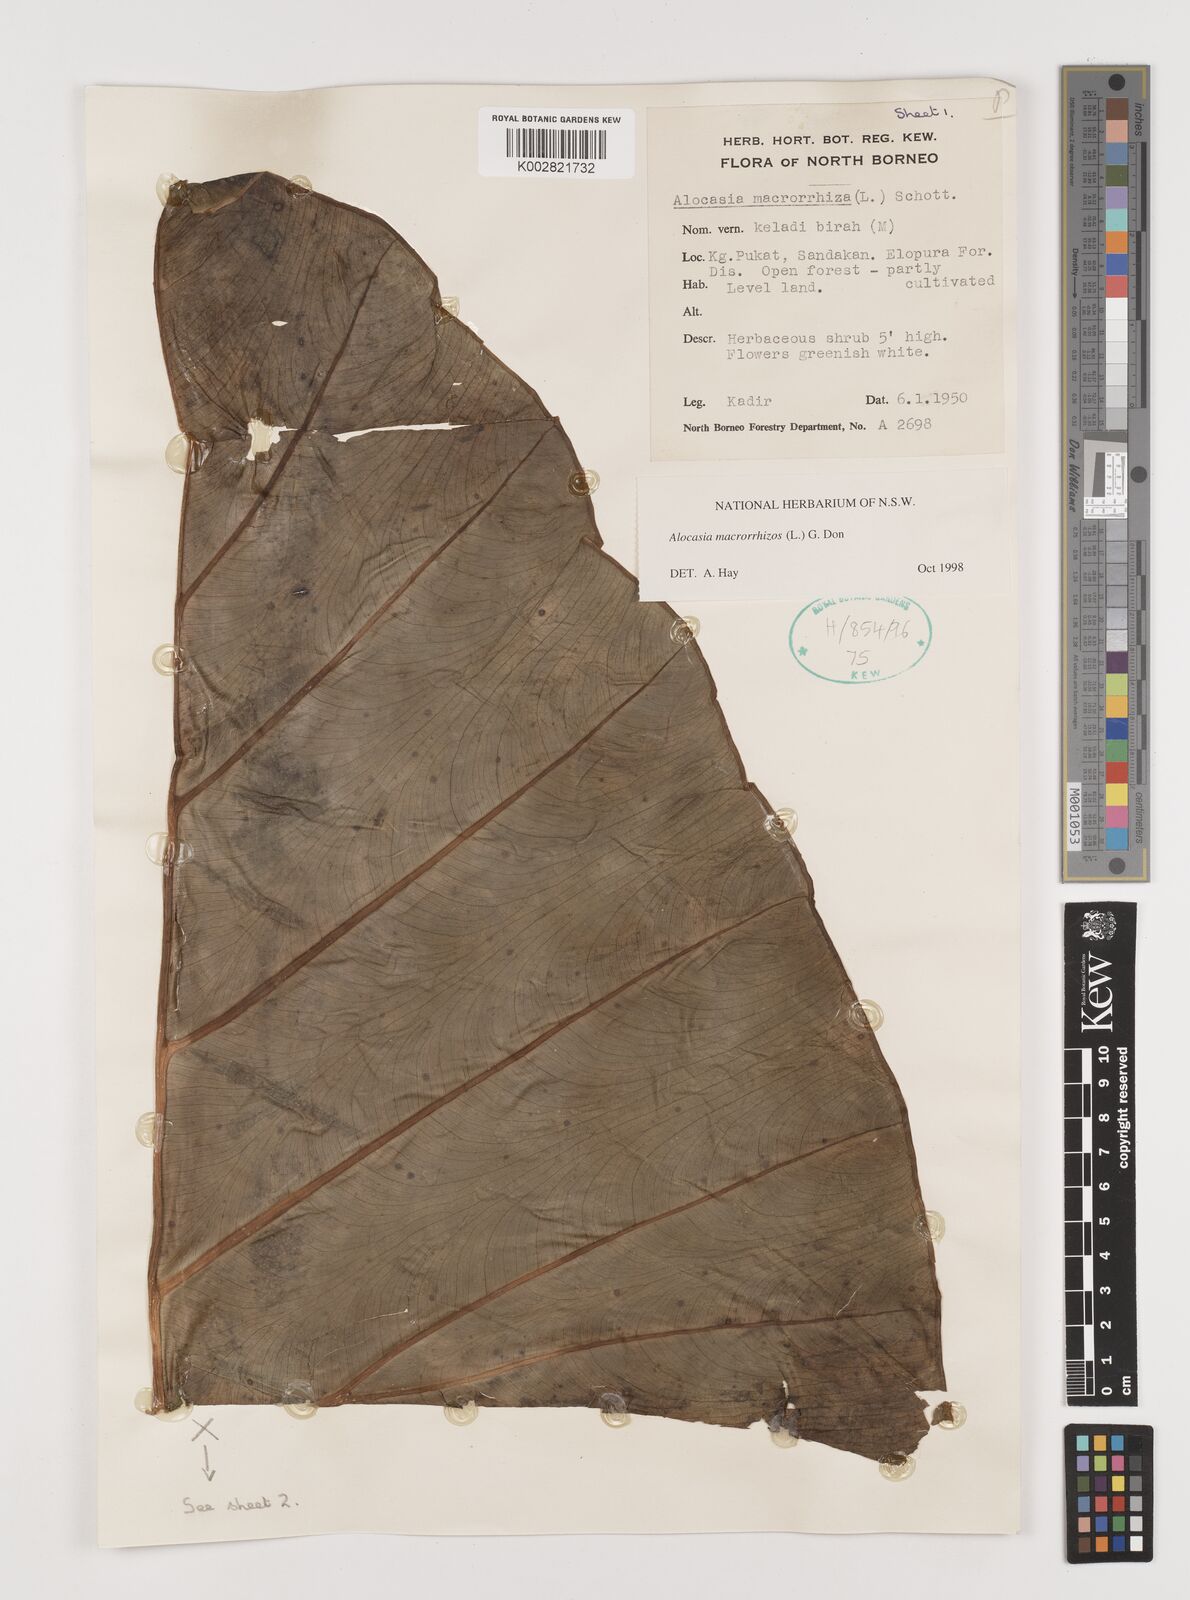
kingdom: Plantae
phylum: Tracheophyta
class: Liliopsida
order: Alismatales
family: Araceae
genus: Alocasia
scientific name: Alocasia macrorrhizos
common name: Giant taro
